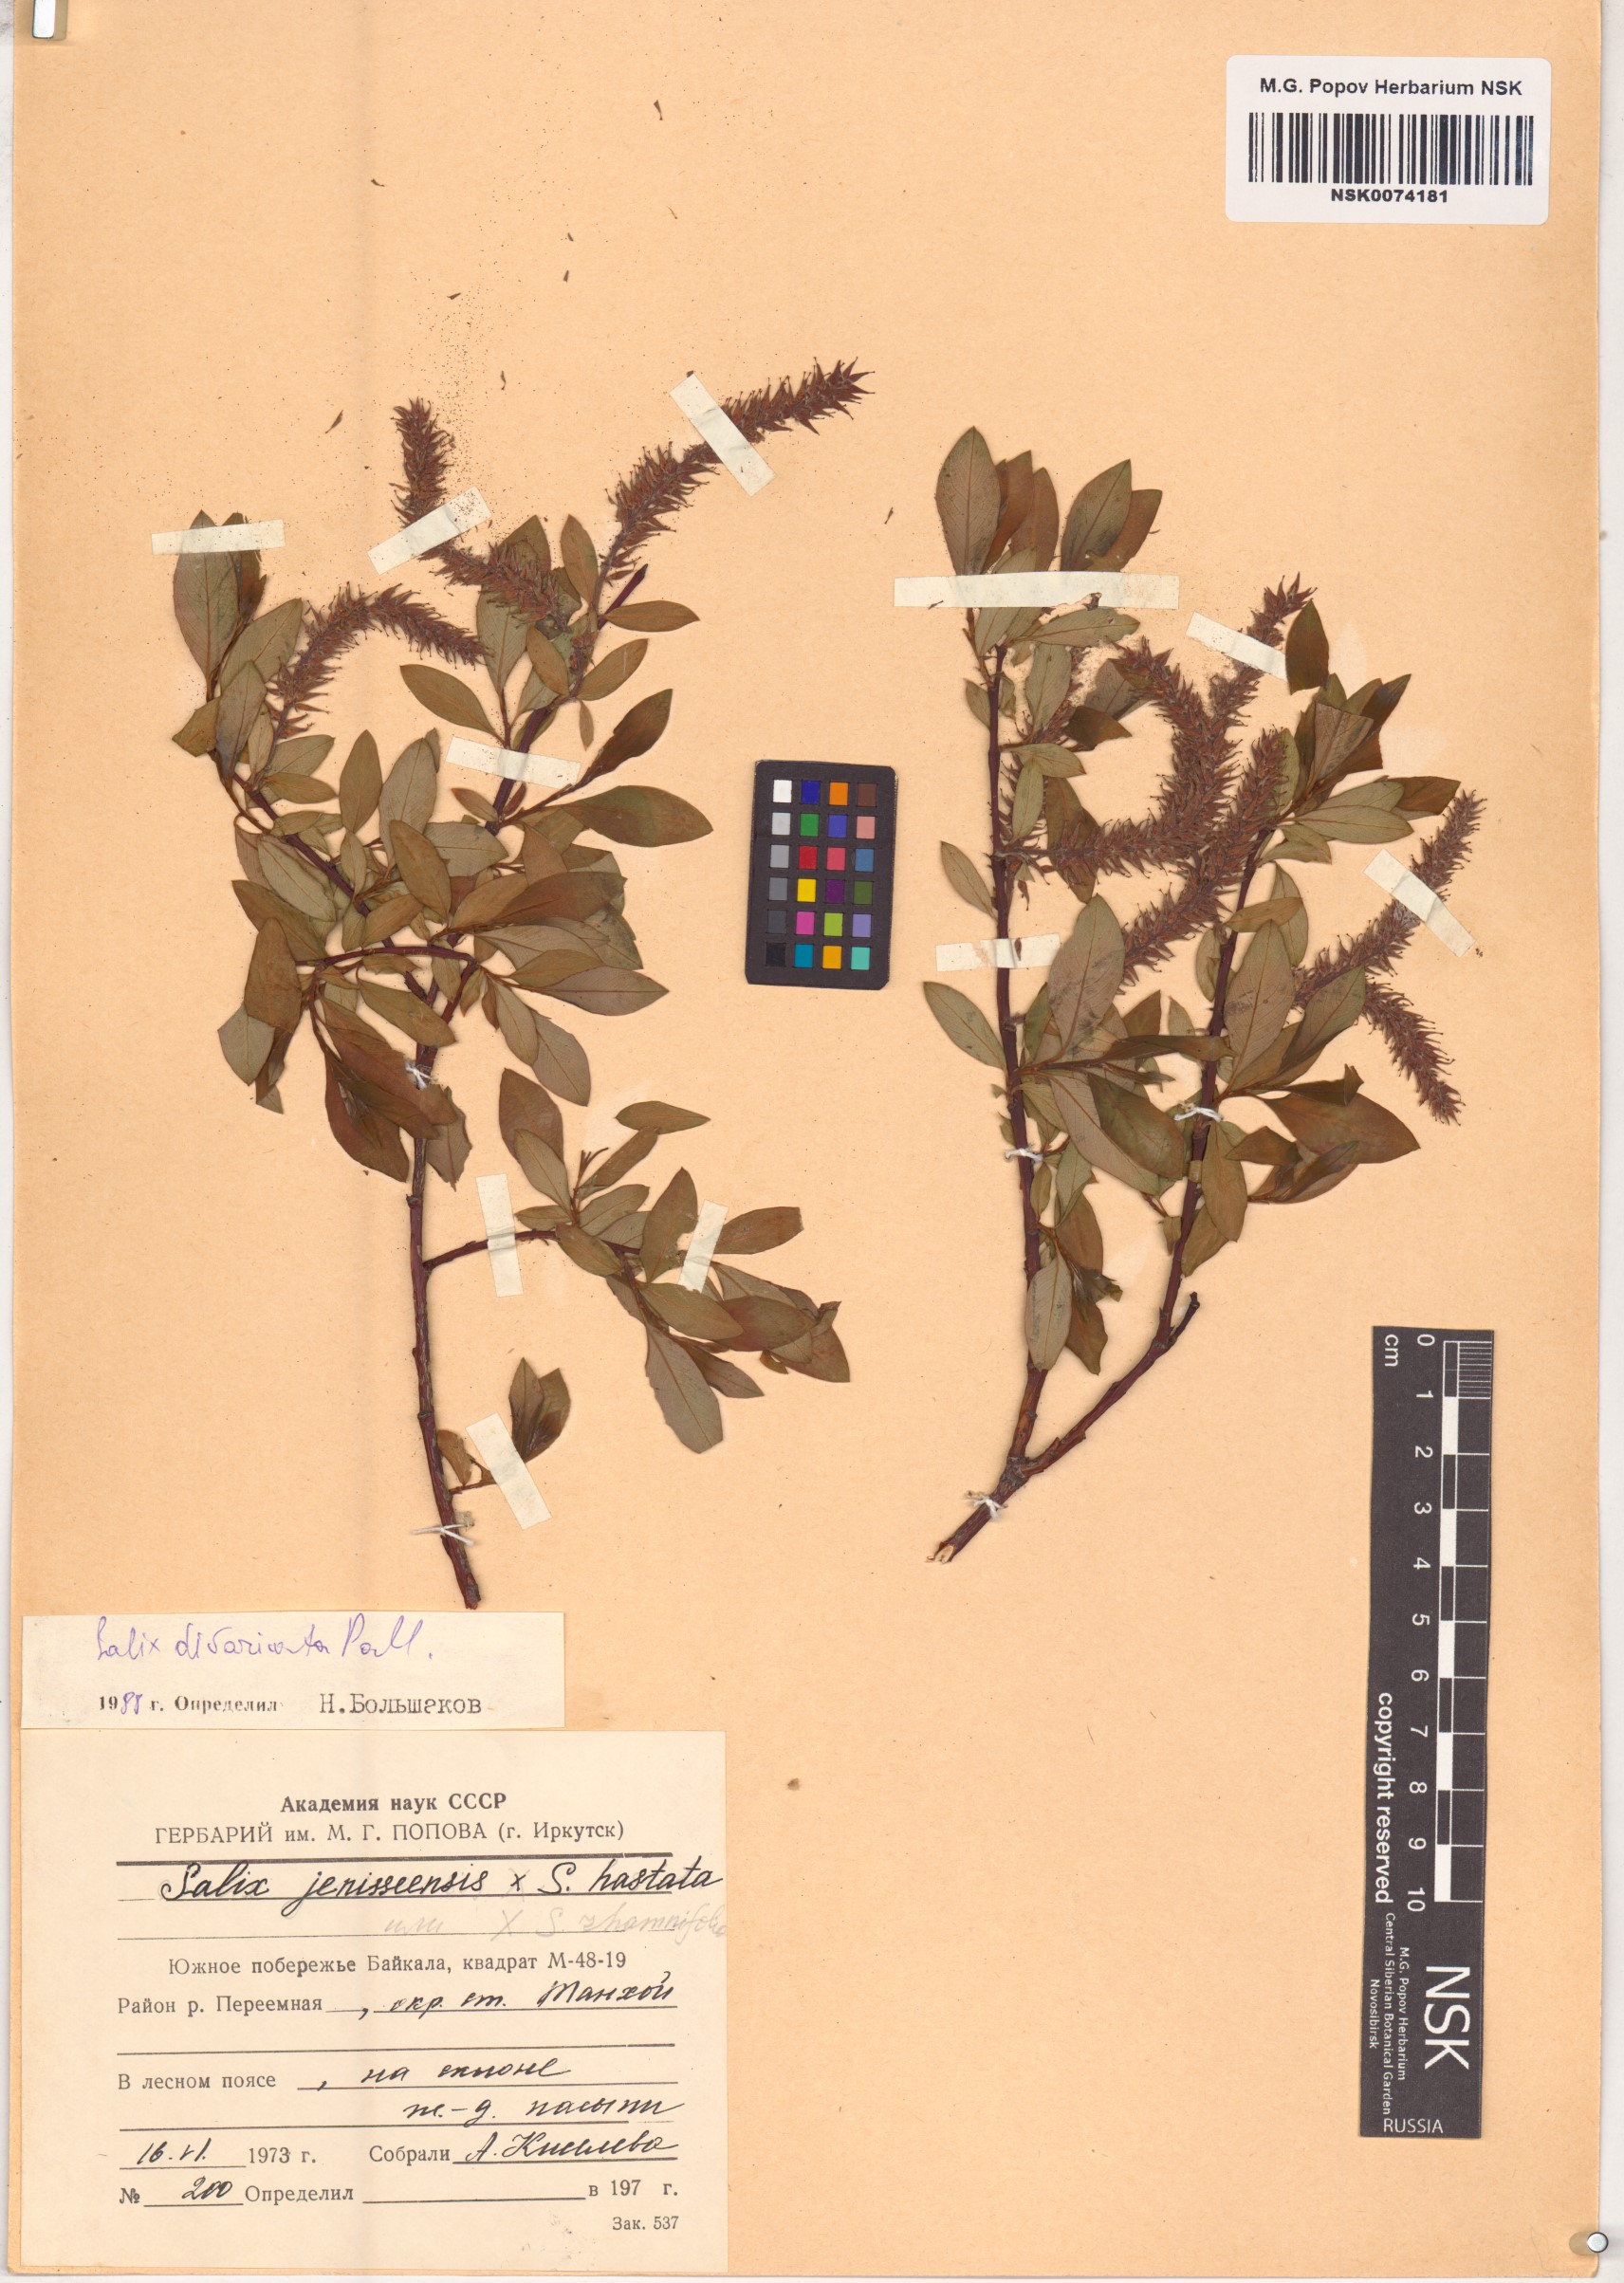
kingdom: Plantae
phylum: Tracheophyta
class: Magnoliopsida
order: Malpighiales
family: Salicaceae
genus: Salix
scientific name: Salix divaricata
